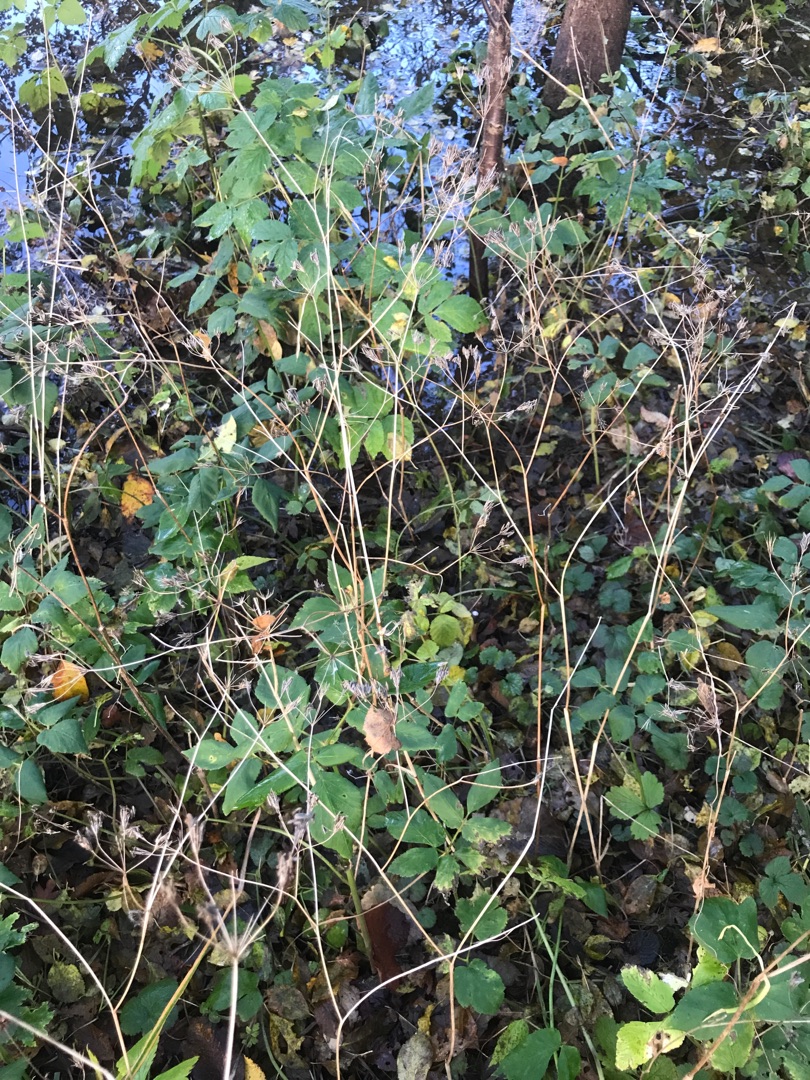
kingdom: Plantae
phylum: Tracheophyta
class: Magnoliopsida
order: Apiales
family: Apiaceae
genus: Aegopodium
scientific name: Aegopodium podagraria
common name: Skvalderkål
